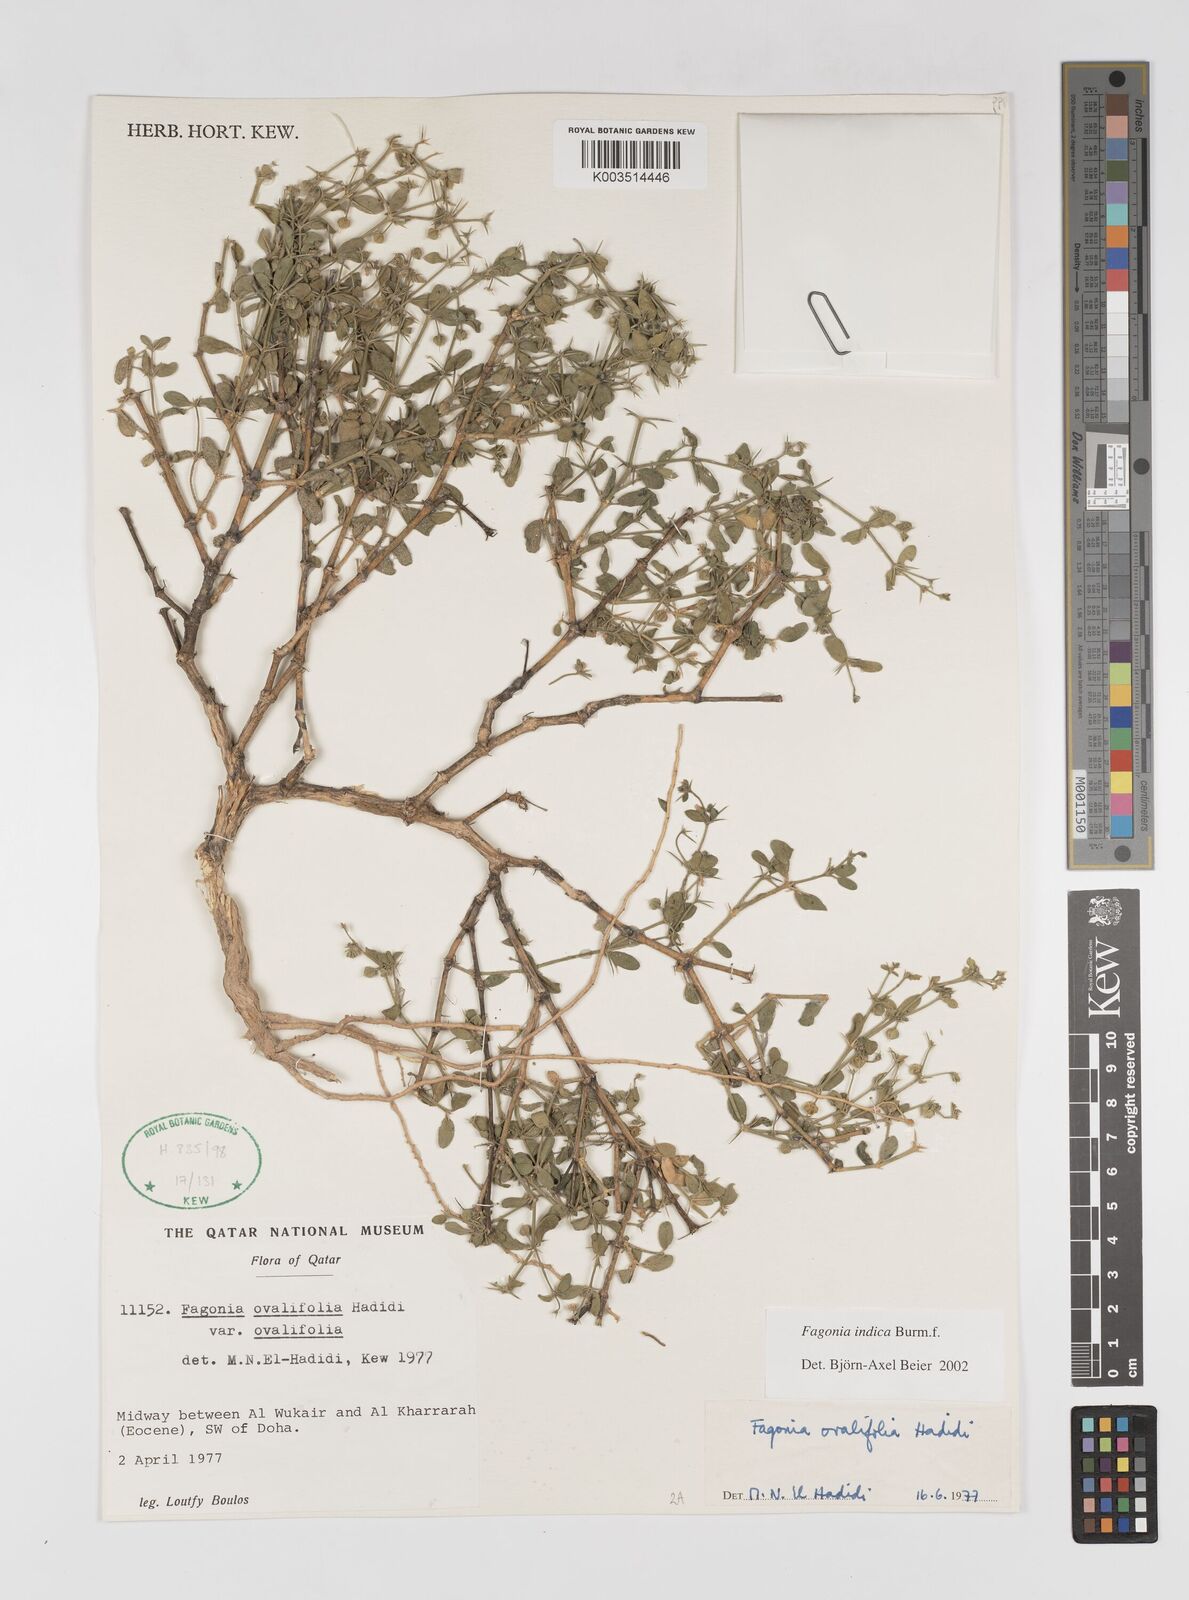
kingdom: Plantae
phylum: Tracheophyta
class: Magnoliopsida
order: Zygophyllales
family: Zygophyllaceae
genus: Fagonia
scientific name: Fagonia indica
